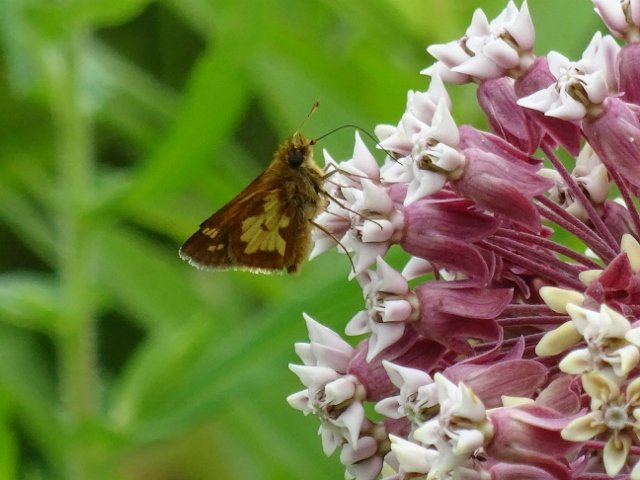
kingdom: Animalia
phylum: Arthropoda
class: Insecta
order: Lepidoptera
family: Hesperiidae
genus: Polites
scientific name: Polites coras
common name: Peck's Skipper
